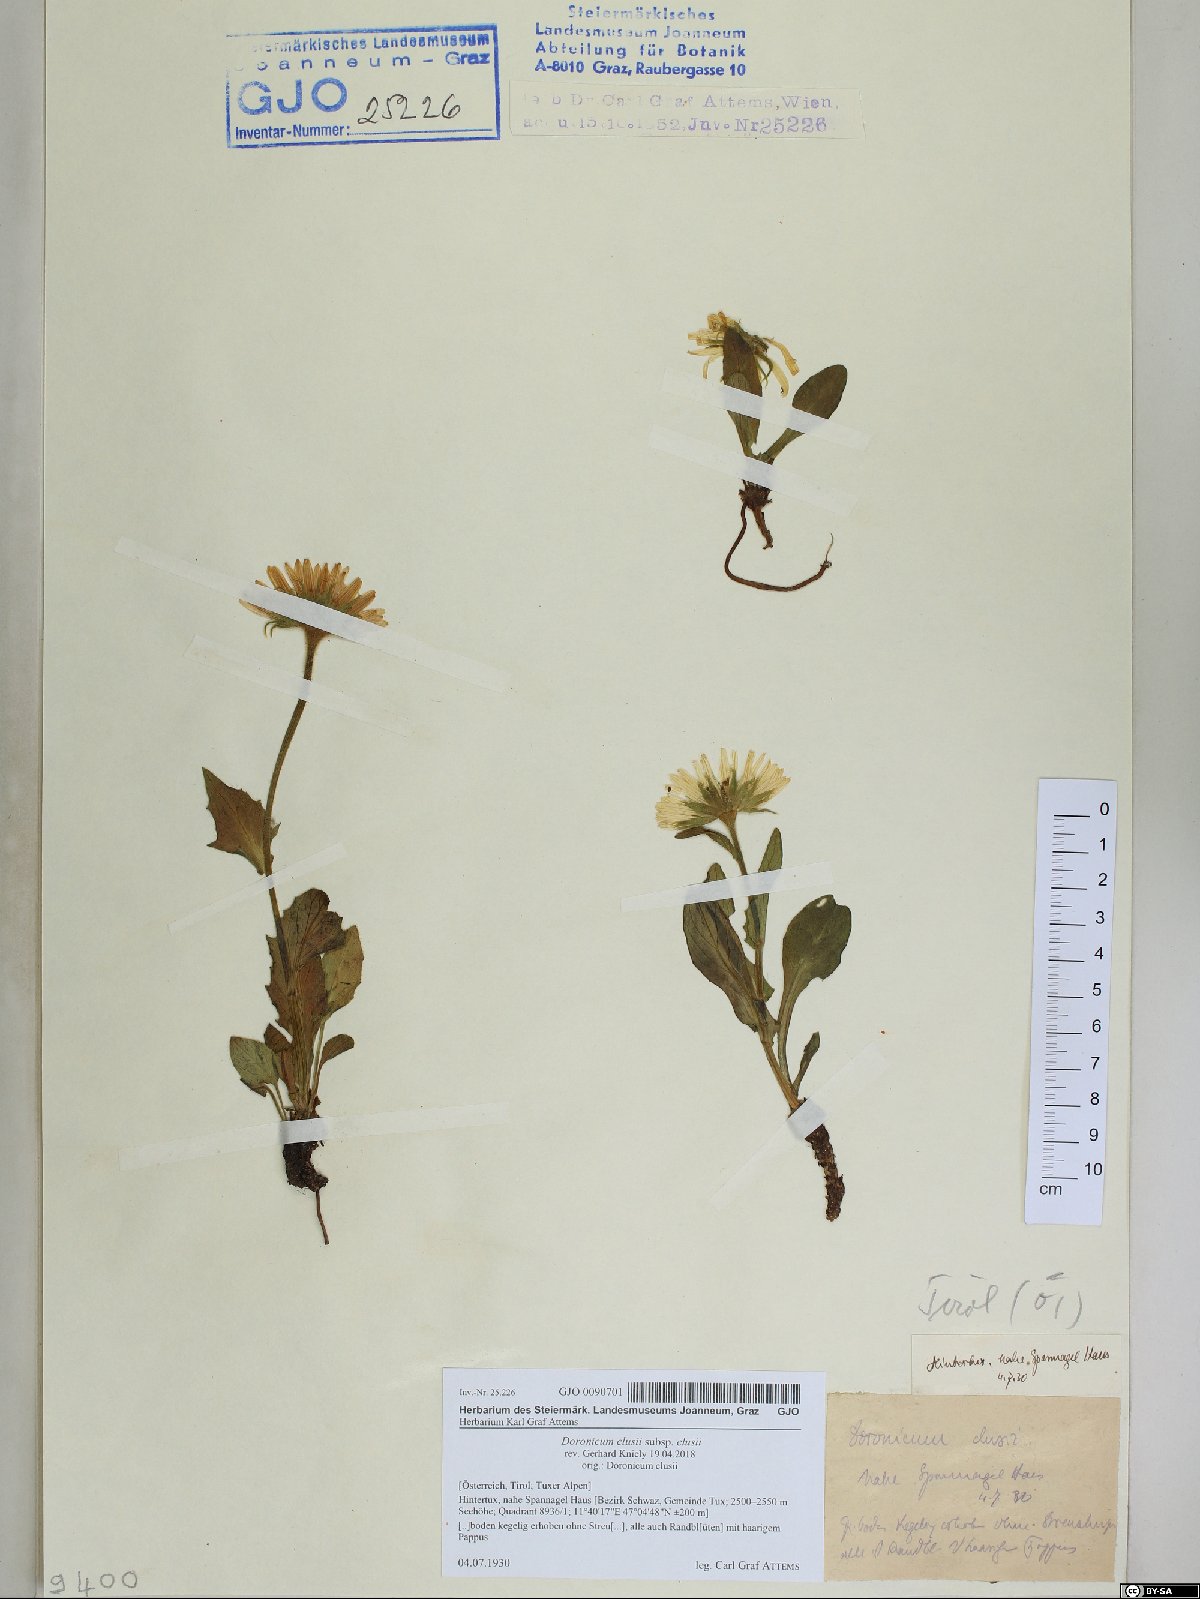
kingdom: Plantae
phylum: Tracheophyta
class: Magnoliopsida
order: Asterales
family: Asteraceae
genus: Doronicum
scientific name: Doronicum clusii
